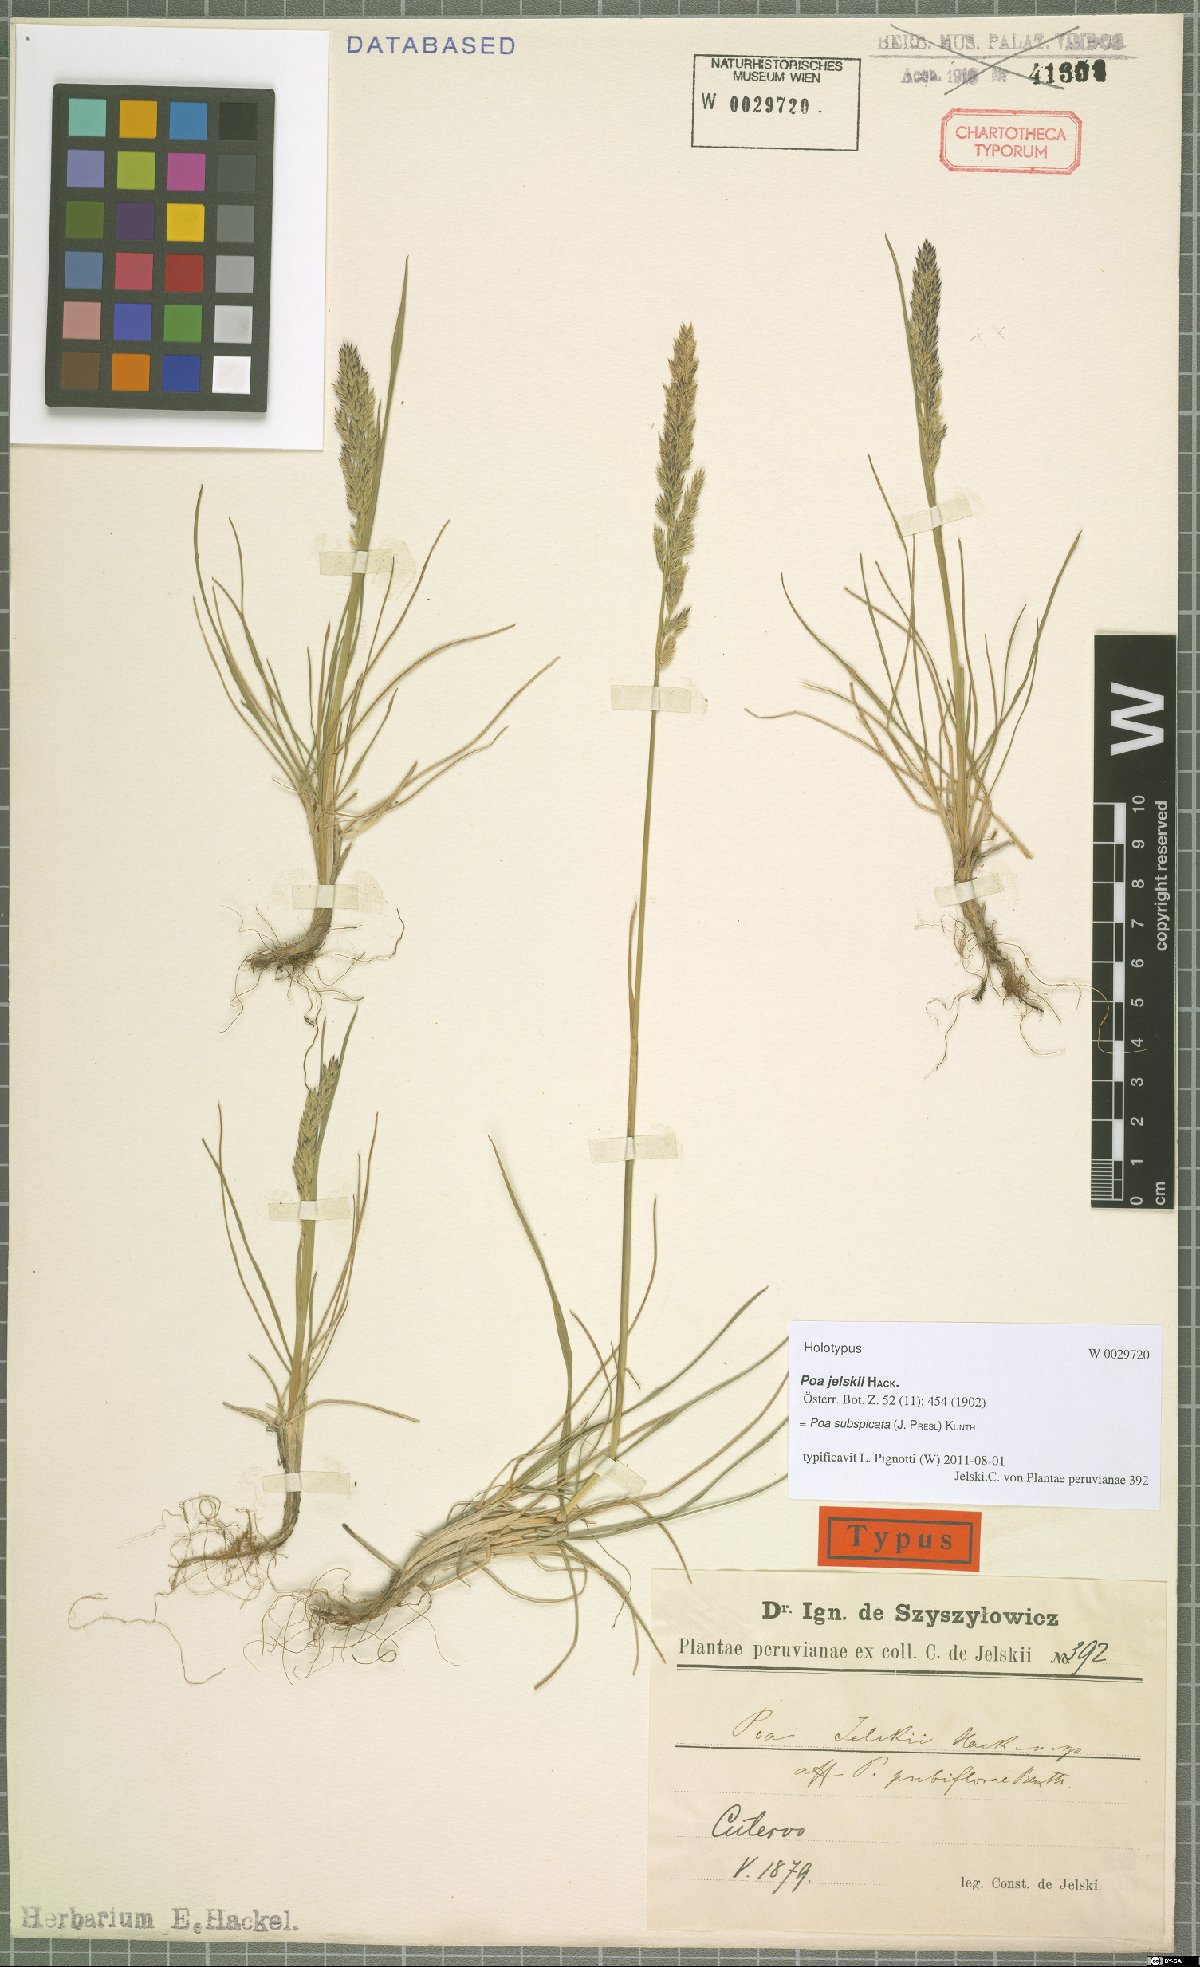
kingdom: Plantae
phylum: Tracheophyta
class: Liliopsida
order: Poales
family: Poaceae
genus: Poa
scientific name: Poa subspicata
